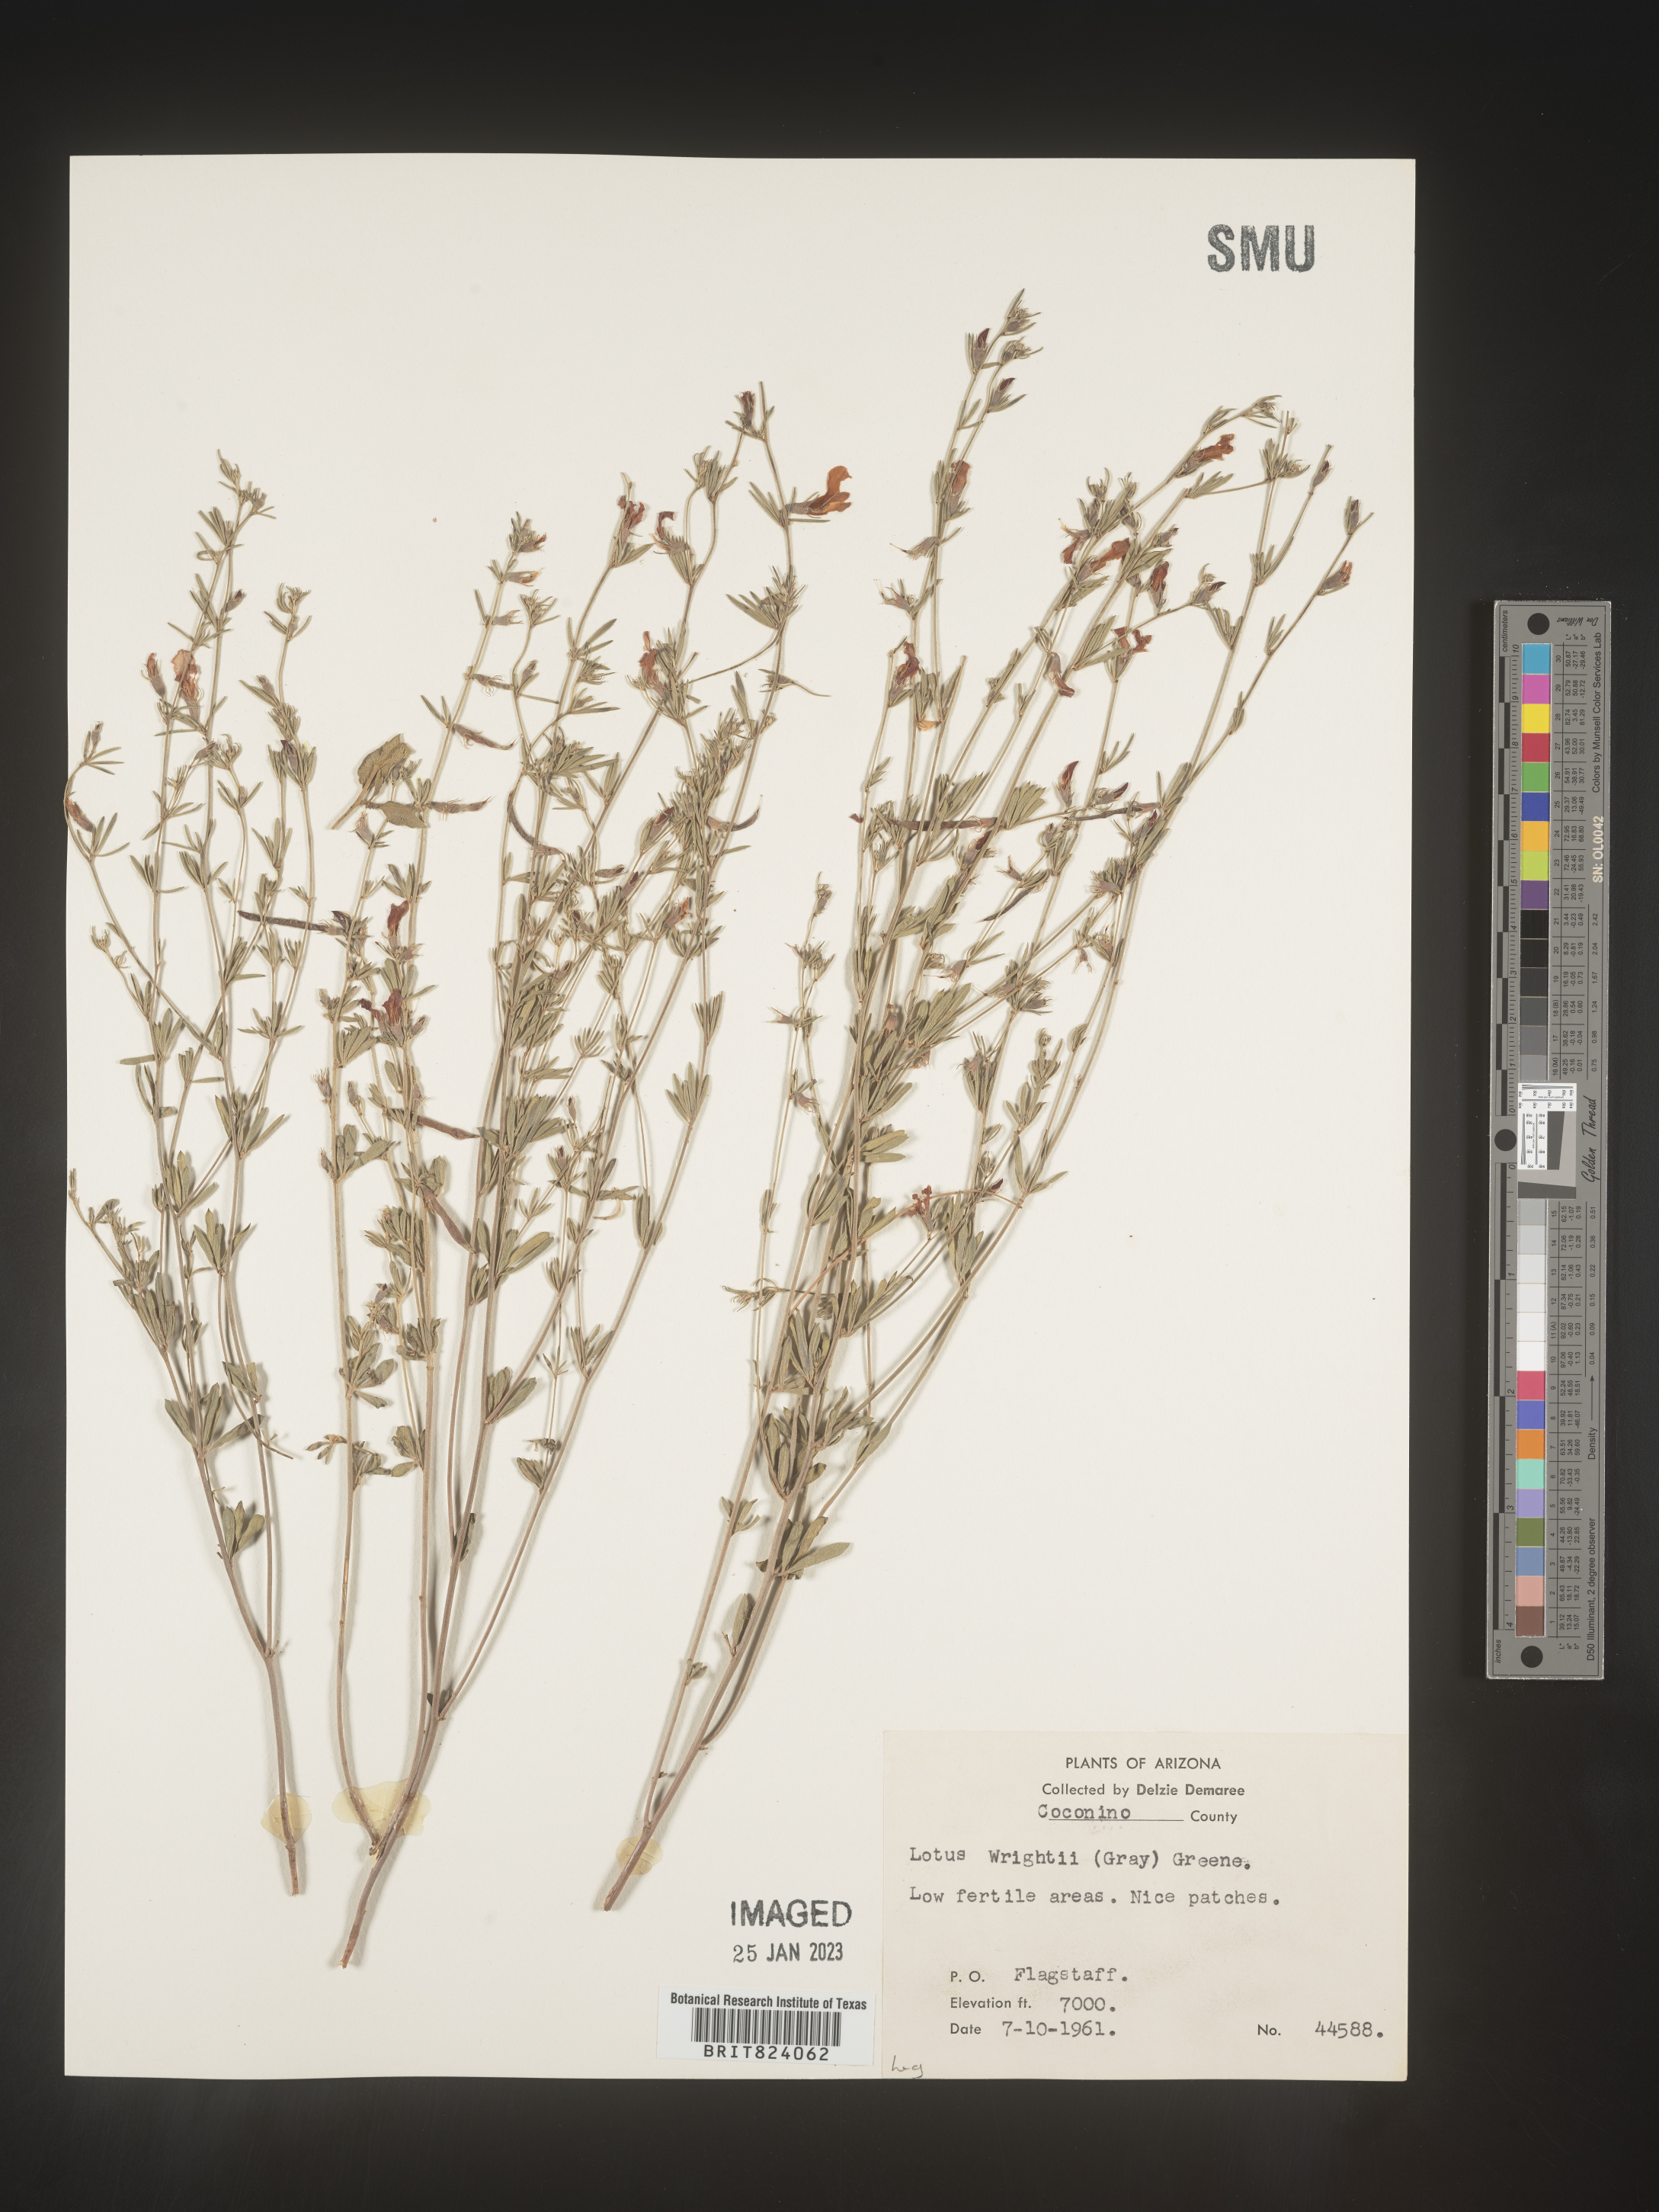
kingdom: Plantae
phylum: Tracheophyta
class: Magnoliopsida
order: Fabales
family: Fabaceae
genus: Acmispon
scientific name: Acmispon wrightii
